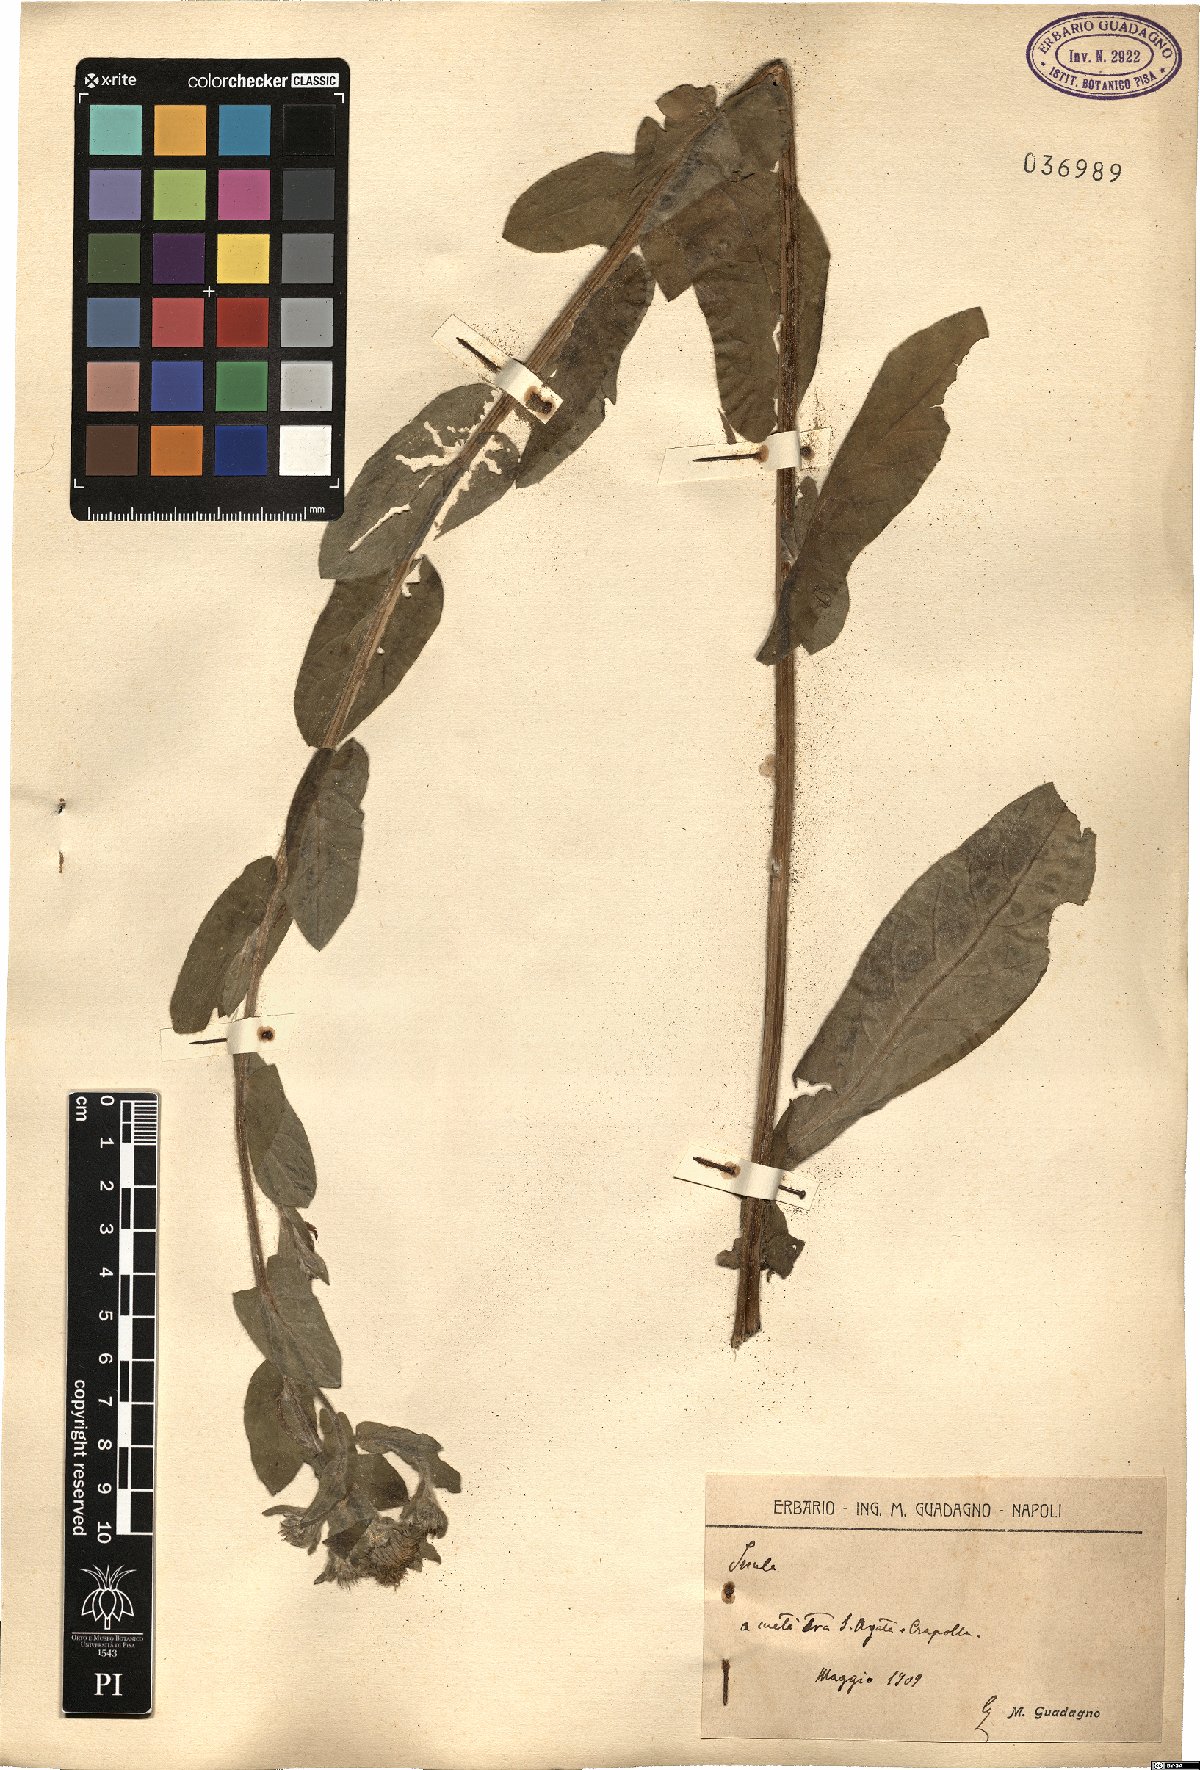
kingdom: Plantae
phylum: Tracheophyta
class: Magnoliopsida
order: Asterales
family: Asteraceae
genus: Inula
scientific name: Inula
